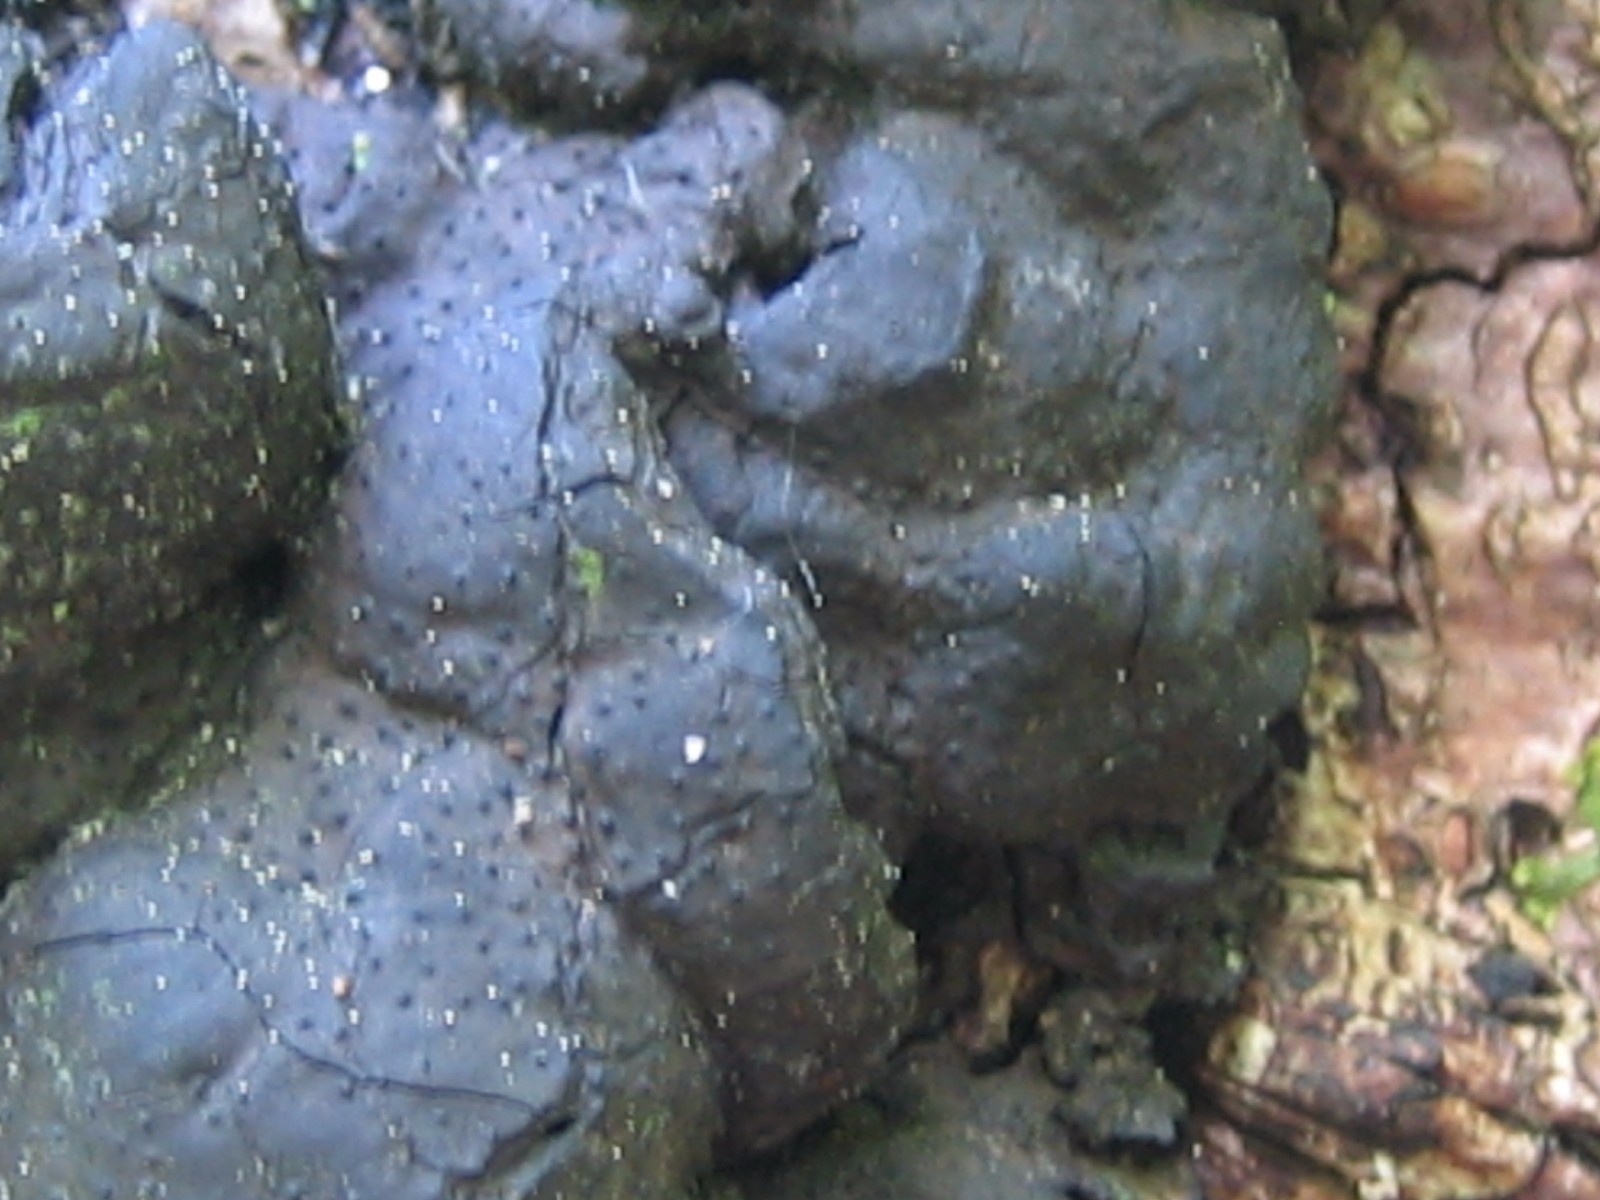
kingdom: Fungi
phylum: Ascomycota
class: Sordariomycetes
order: Xylariales
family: Xylariaceae
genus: Kretzschmaria
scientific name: Kretzschmaria deusta
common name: stor kulsvamp
